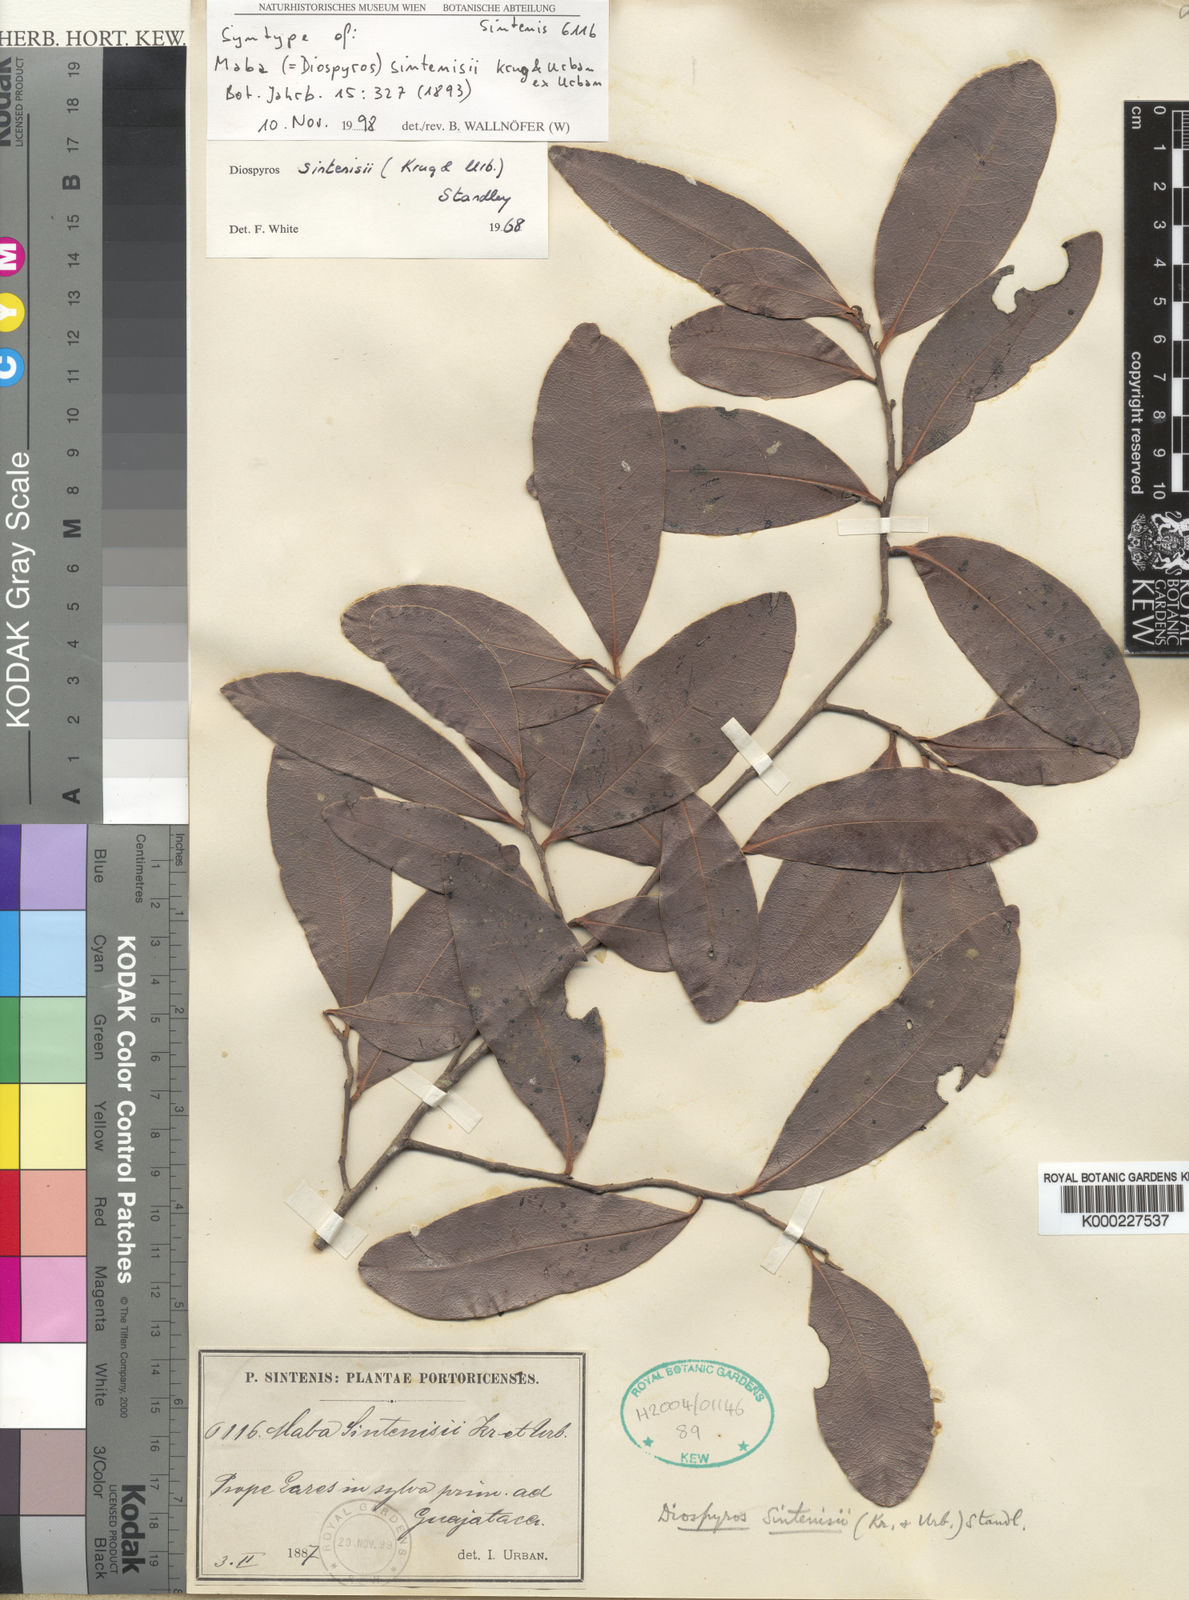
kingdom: Plantae
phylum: Tracheophyta
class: Magnoliopsida
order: Ericales
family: Ebenaceae
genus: Diospyros
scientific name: Diospyros sintenisii
